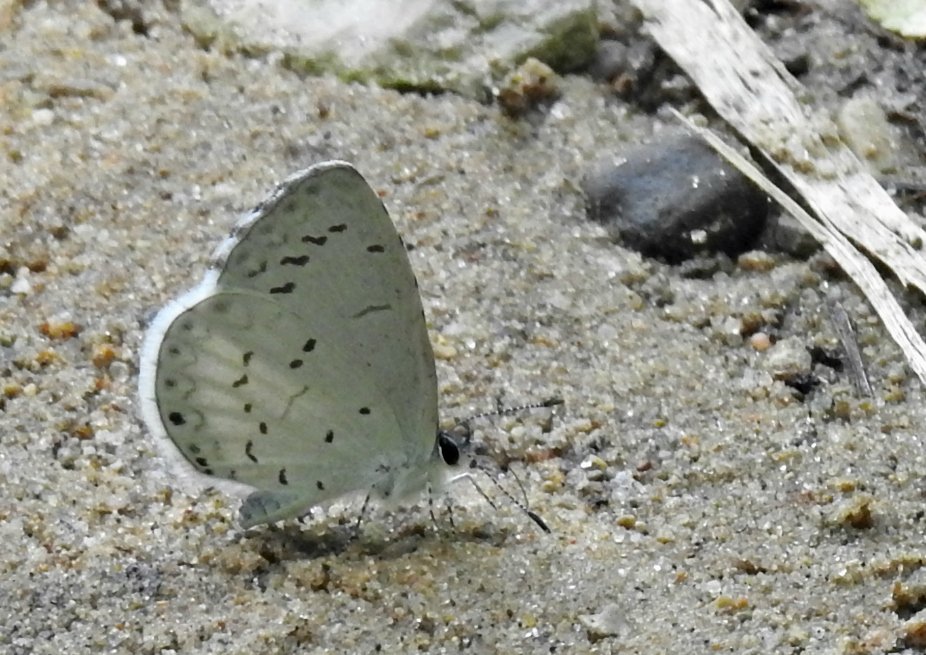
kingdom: Animalia
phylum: Arthropoda
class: Insecta
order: Lepidoptera
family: Lycaenidae
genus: Celastrina
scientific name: Celastrina
